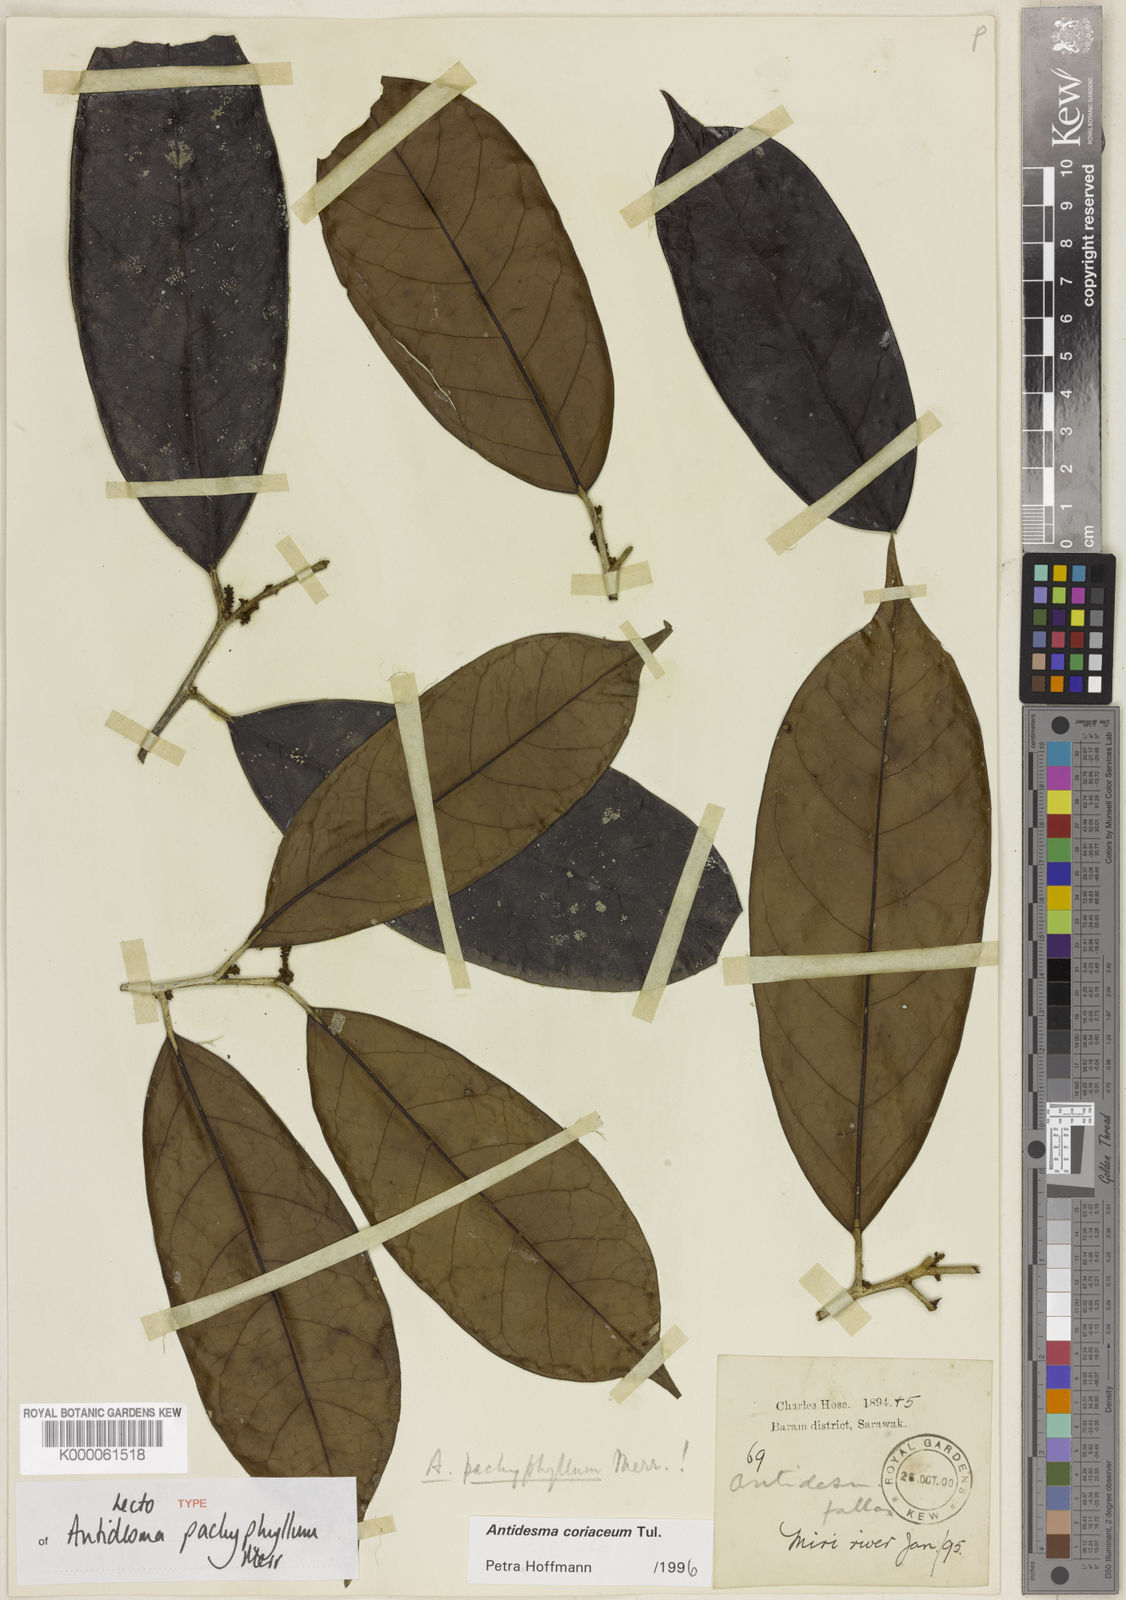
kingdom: Plantae
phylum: Tracheophyta
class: Magnoliopsida
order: Malpighiales
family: Phyllanthaceae
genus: Antidesma
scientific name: Antidesma coriaceum
